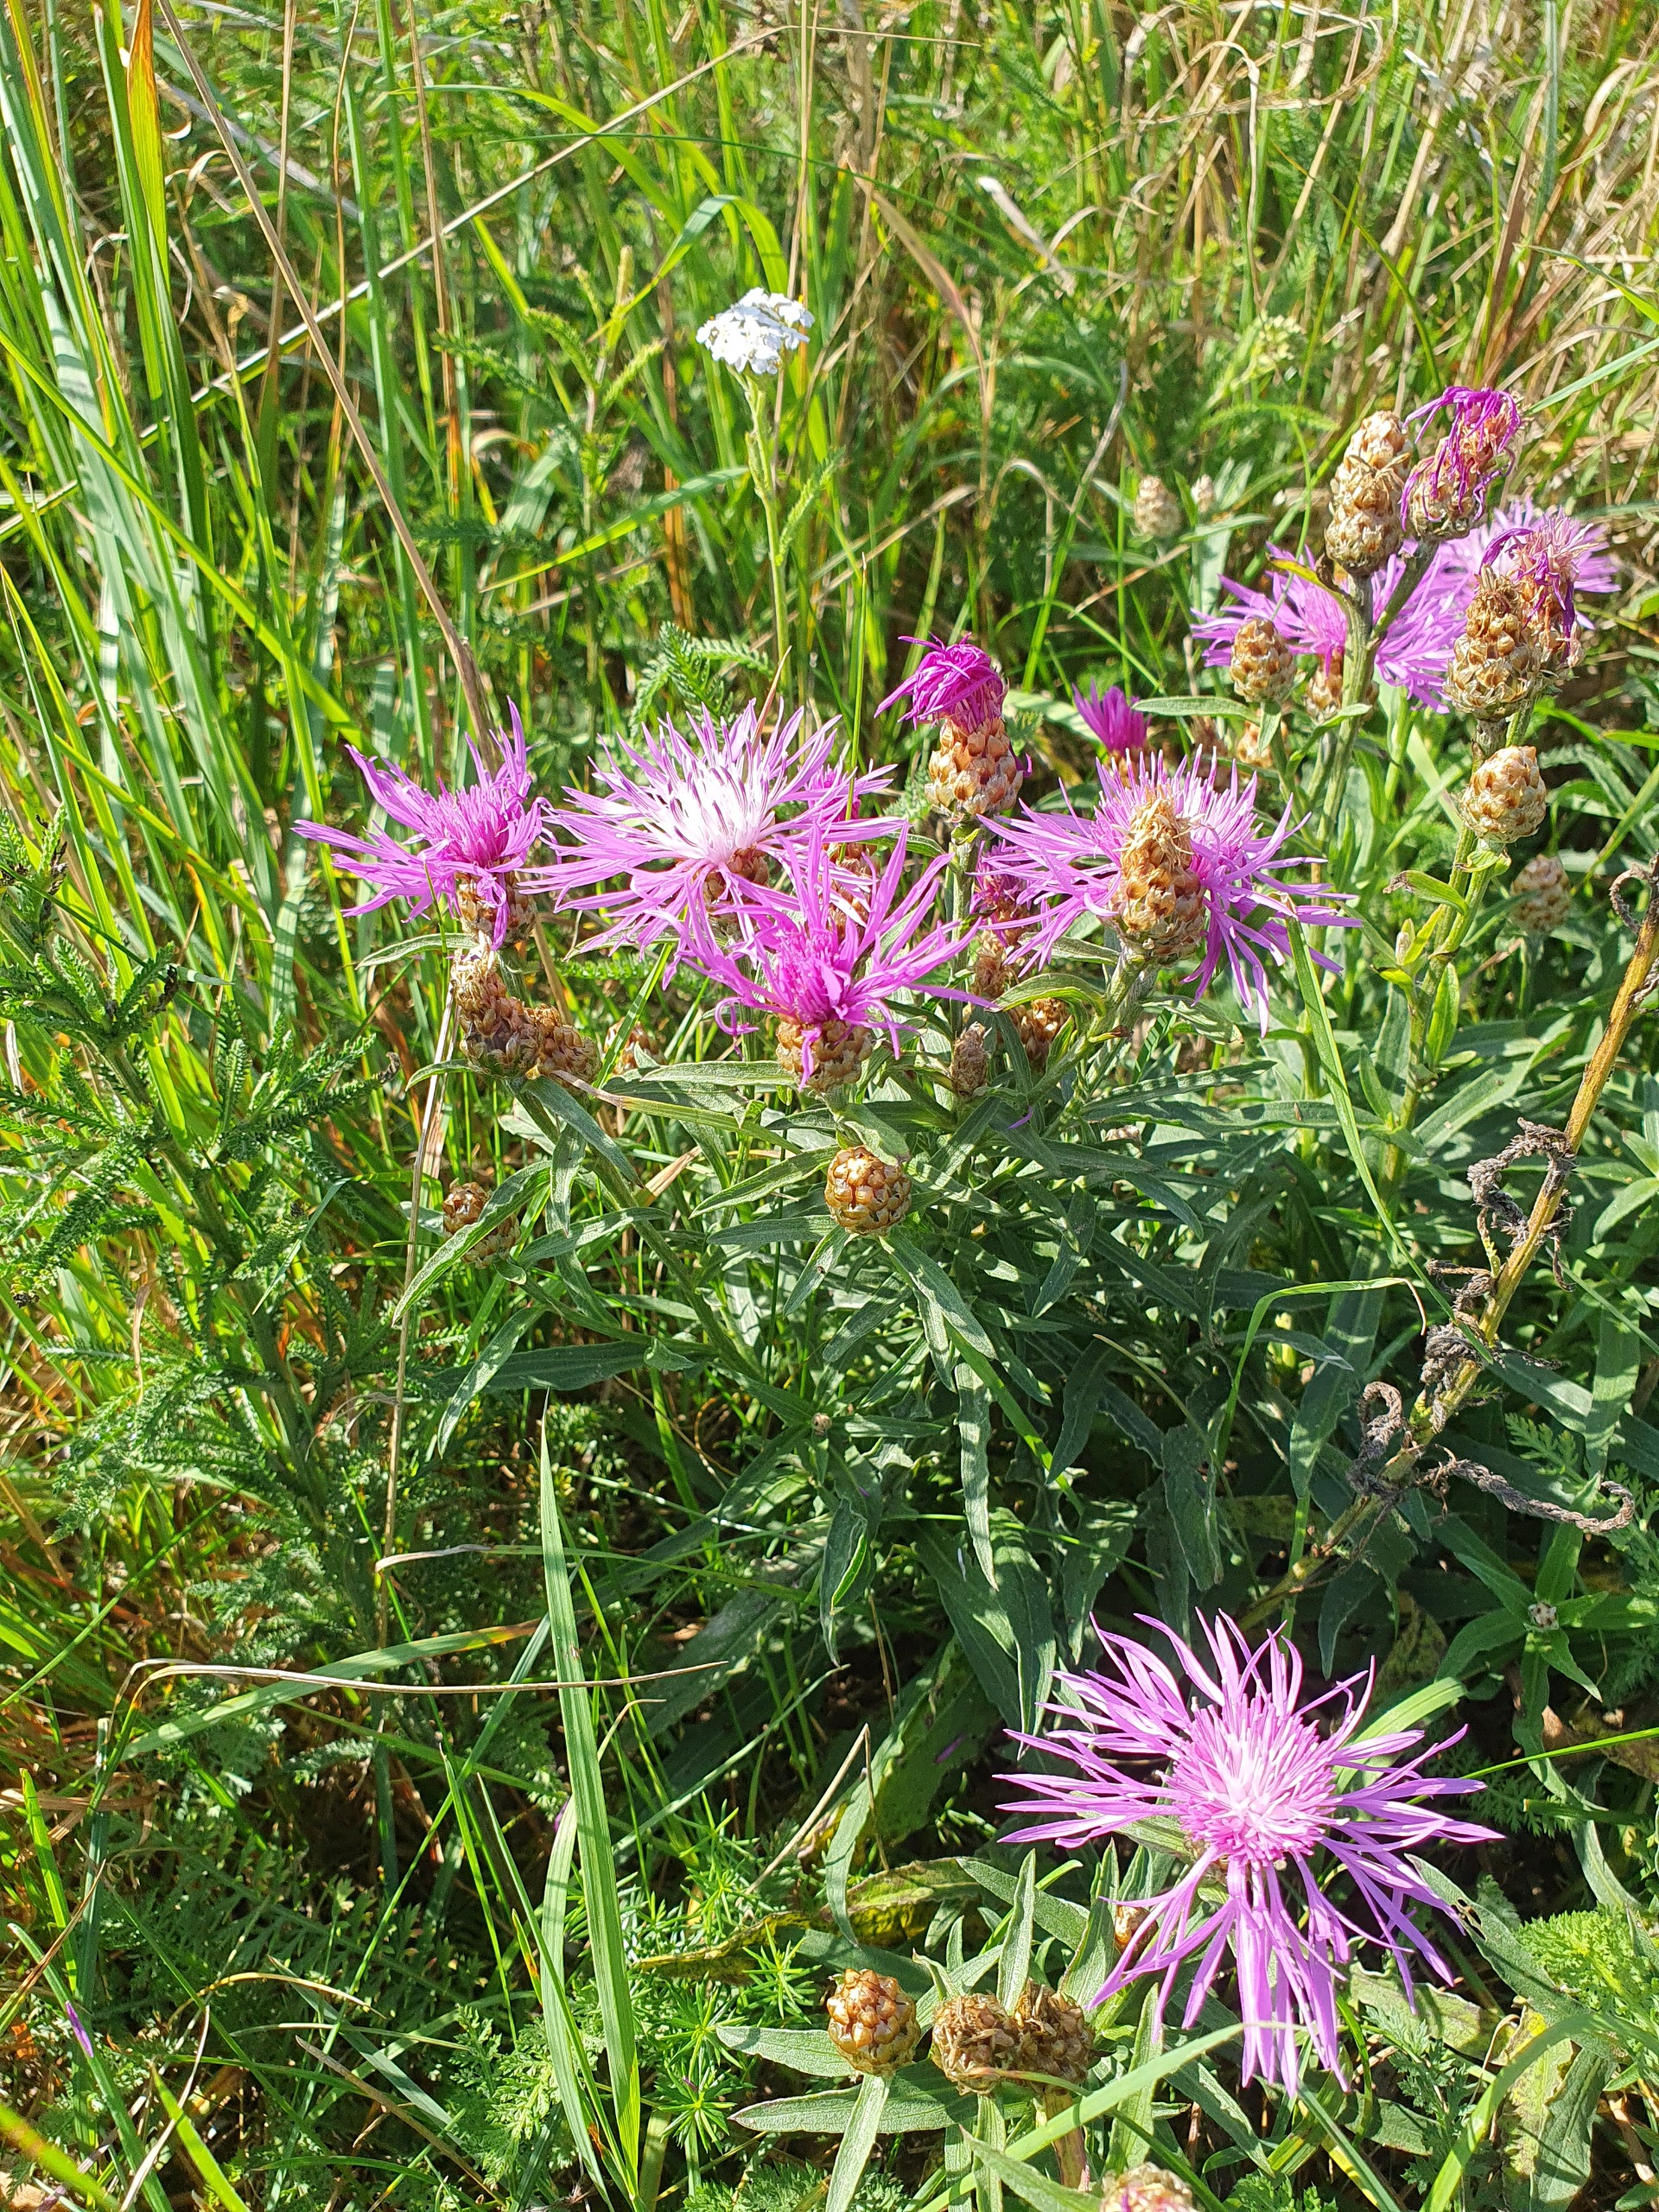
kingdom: Plantae
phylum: Tracheophyta
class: Magnoliopsida
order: Asterales
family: Asteraceae
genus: Centaurea
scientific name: Centaurea jacea
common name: Almindelig knopurt
